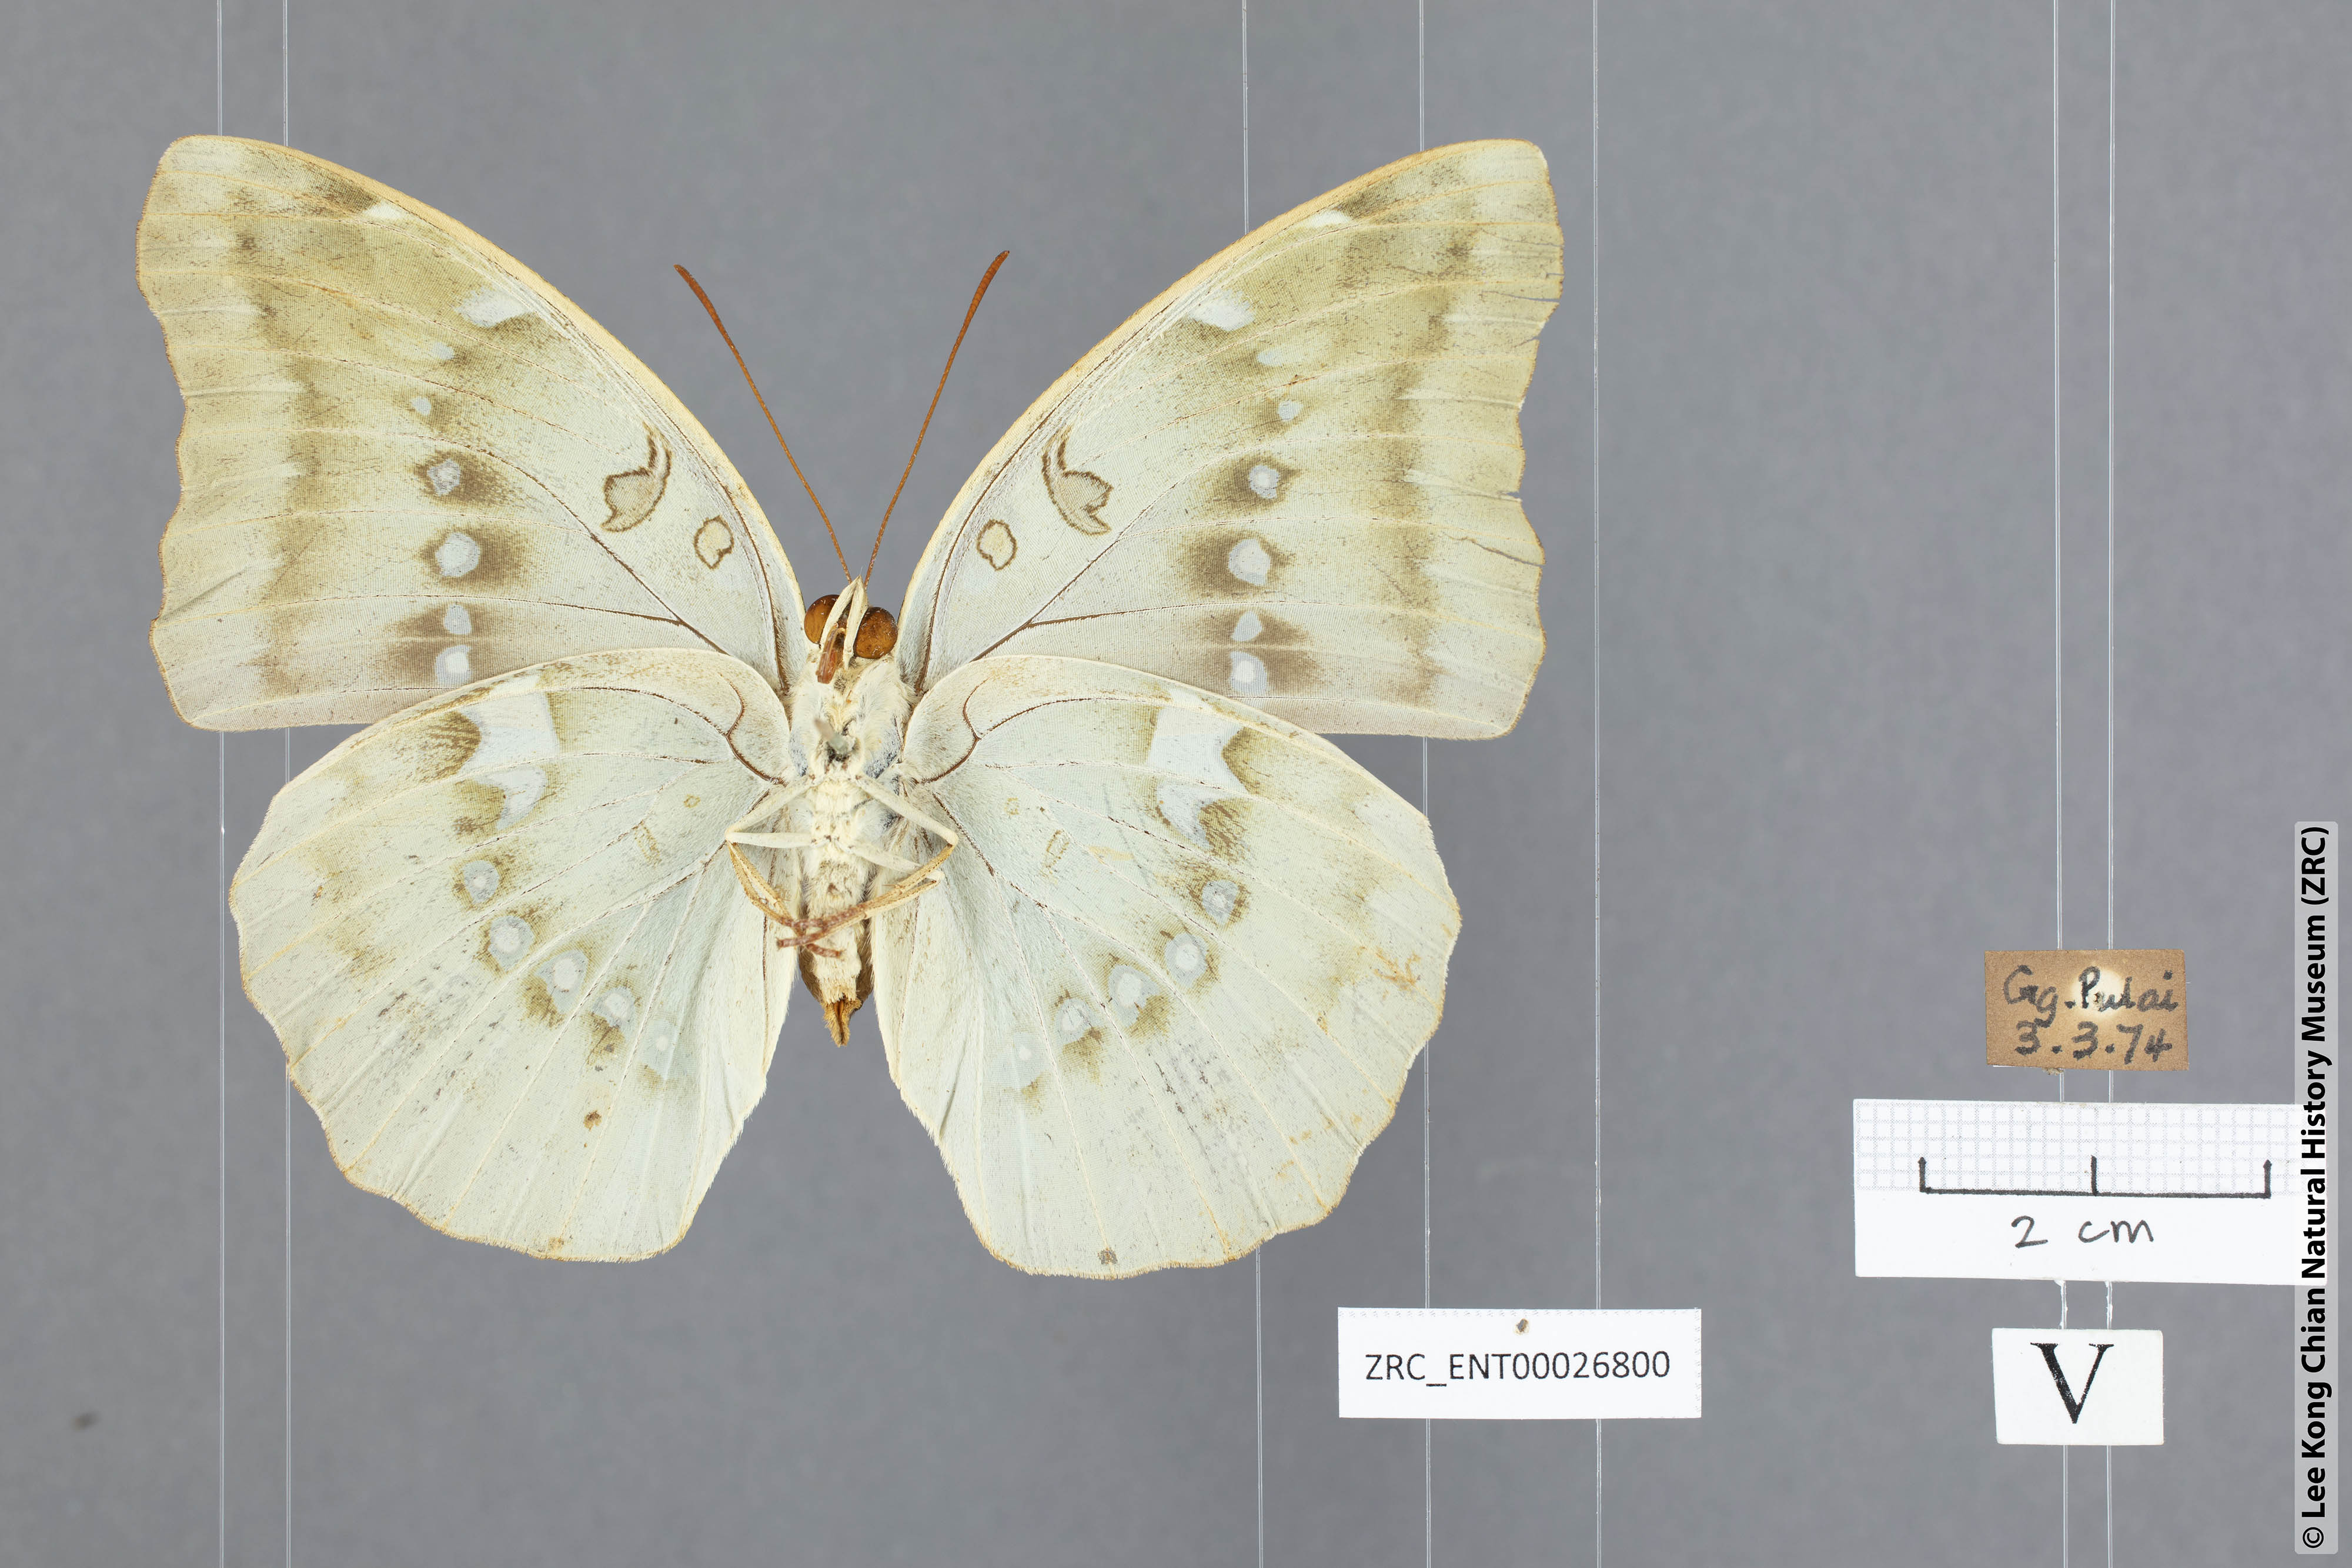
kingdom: Animalia
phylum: Arthropoda
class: Insecta
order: Lepidoptera
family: Nymphalidae
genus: Euthalia
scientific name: Euthalia Bassarona dunya
